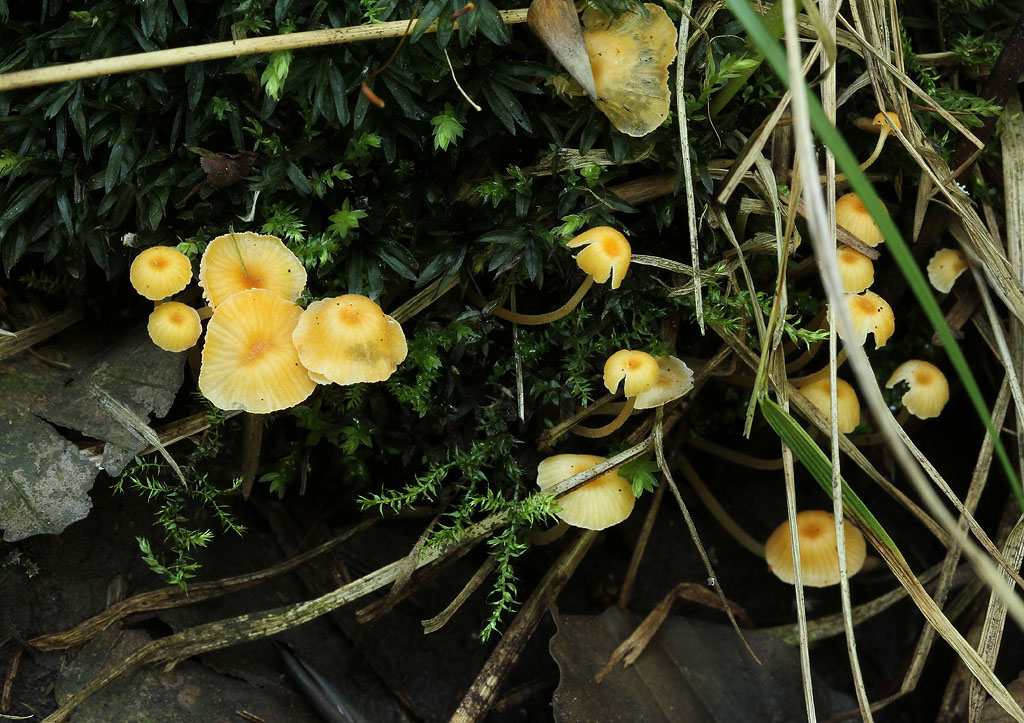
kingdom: Fungi
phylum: Basidiomycota
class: Agaricomycetes
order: Hymenochaetales
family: Rickenellaceae
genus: Rickenella
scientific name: Rickenella fibula
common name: orange mosnavlehat
